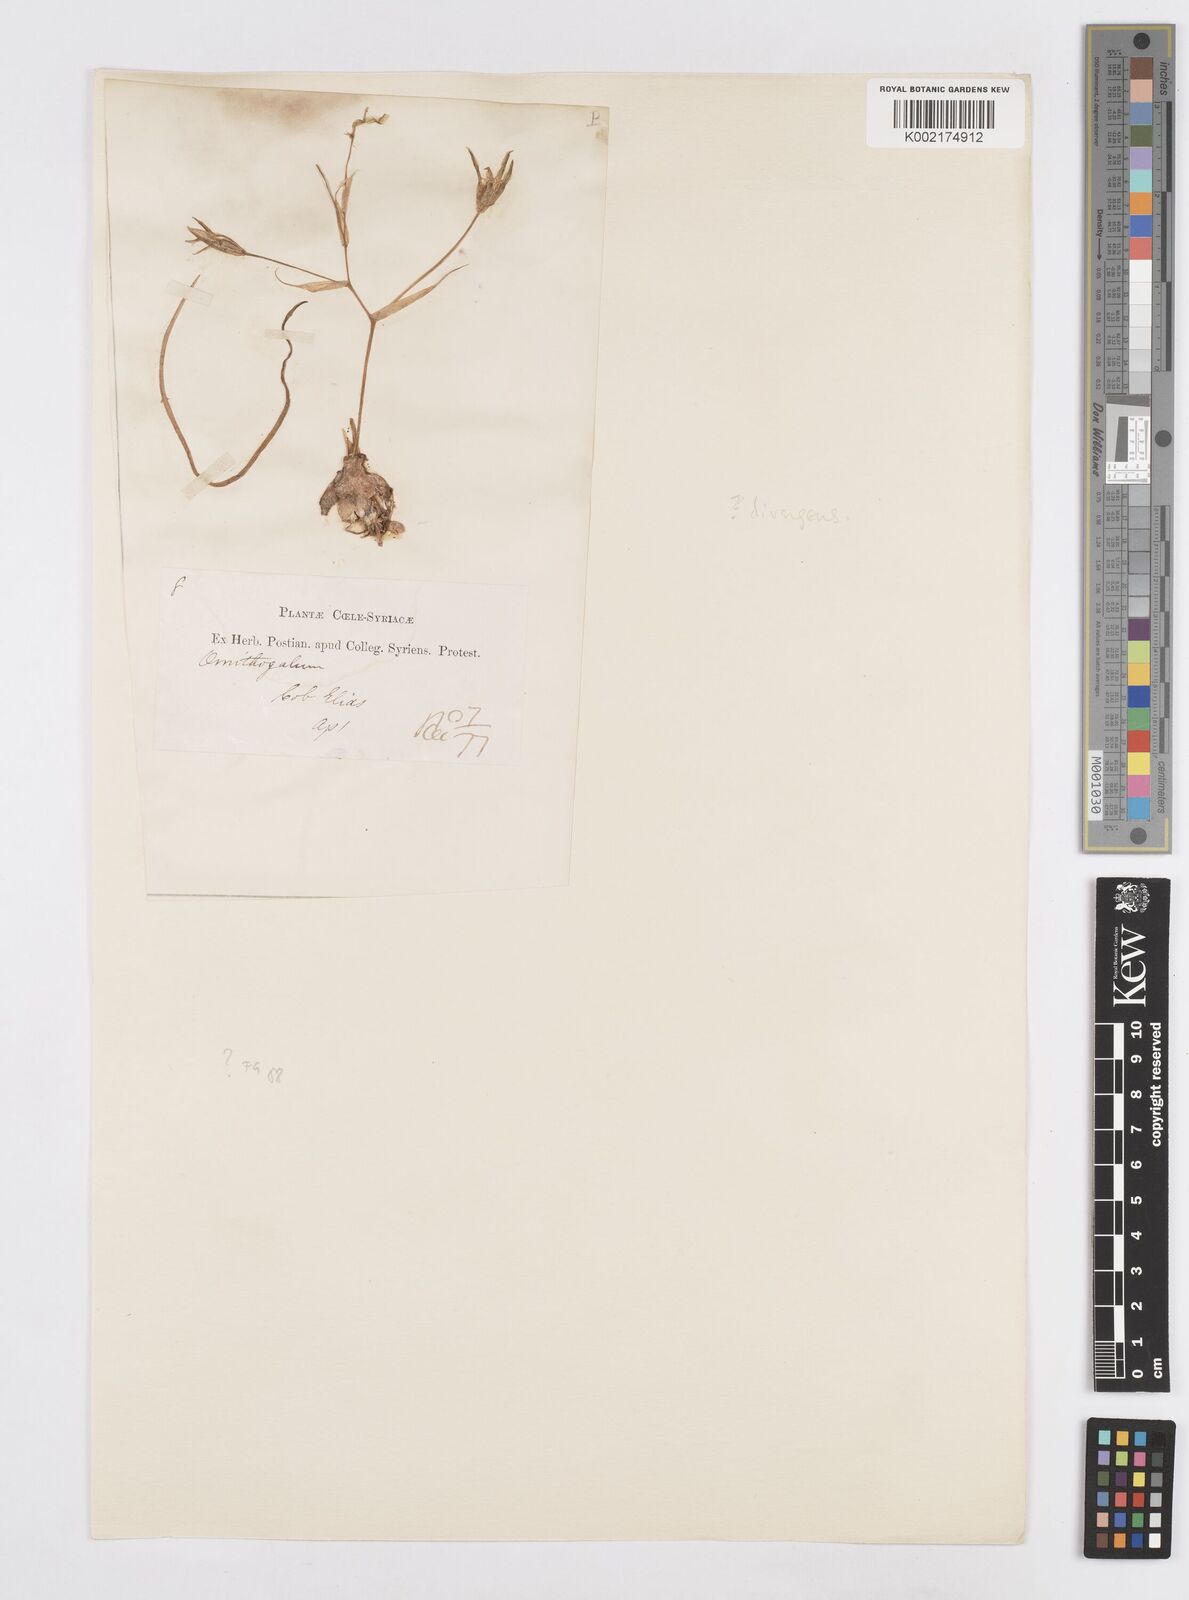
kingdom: Plantae
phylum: Tracheophyta
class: Liliopsida
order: Asparagales
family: Asparagaceae
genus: Ornithogalum
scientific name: Ornithogalum umbellatum
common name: Garden star-of-bethlehem
